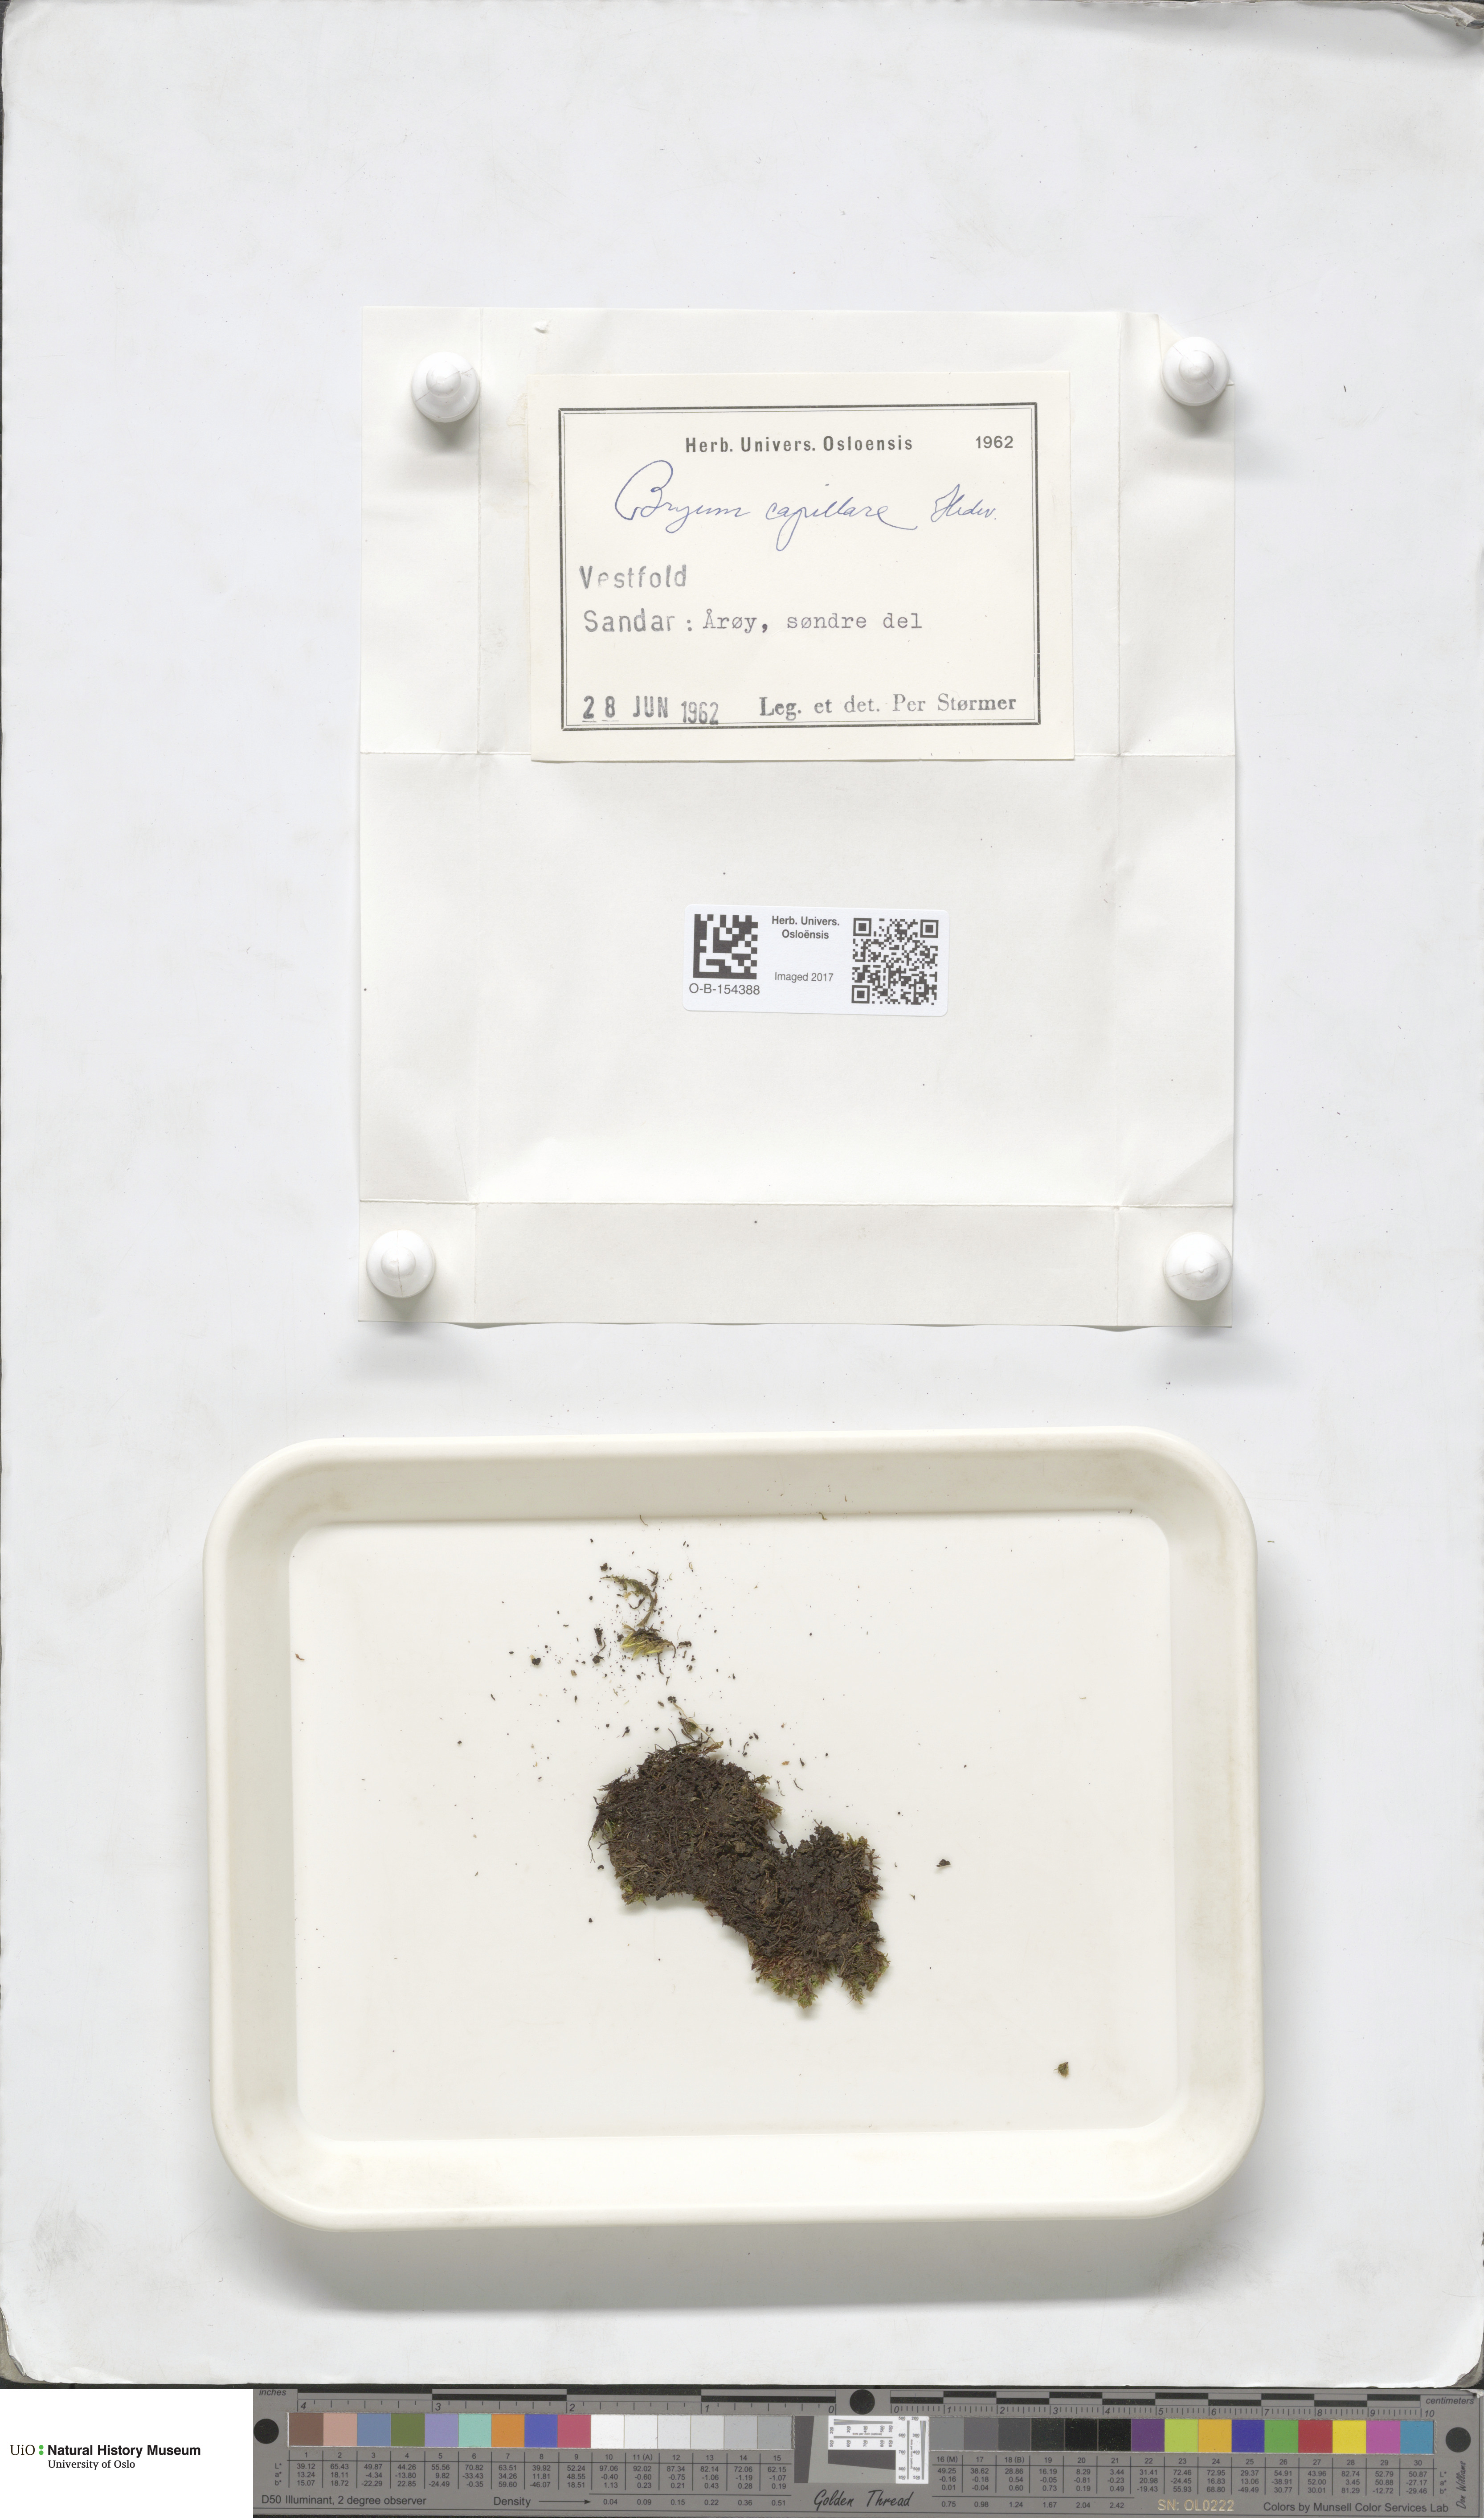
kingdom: Plantae
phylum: Bryophyta
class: Bryopsida
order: Bryales
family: Bryaceae
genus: Rosulabryum
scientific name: Rosulabryum capillare
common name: Capillary thread-moss
